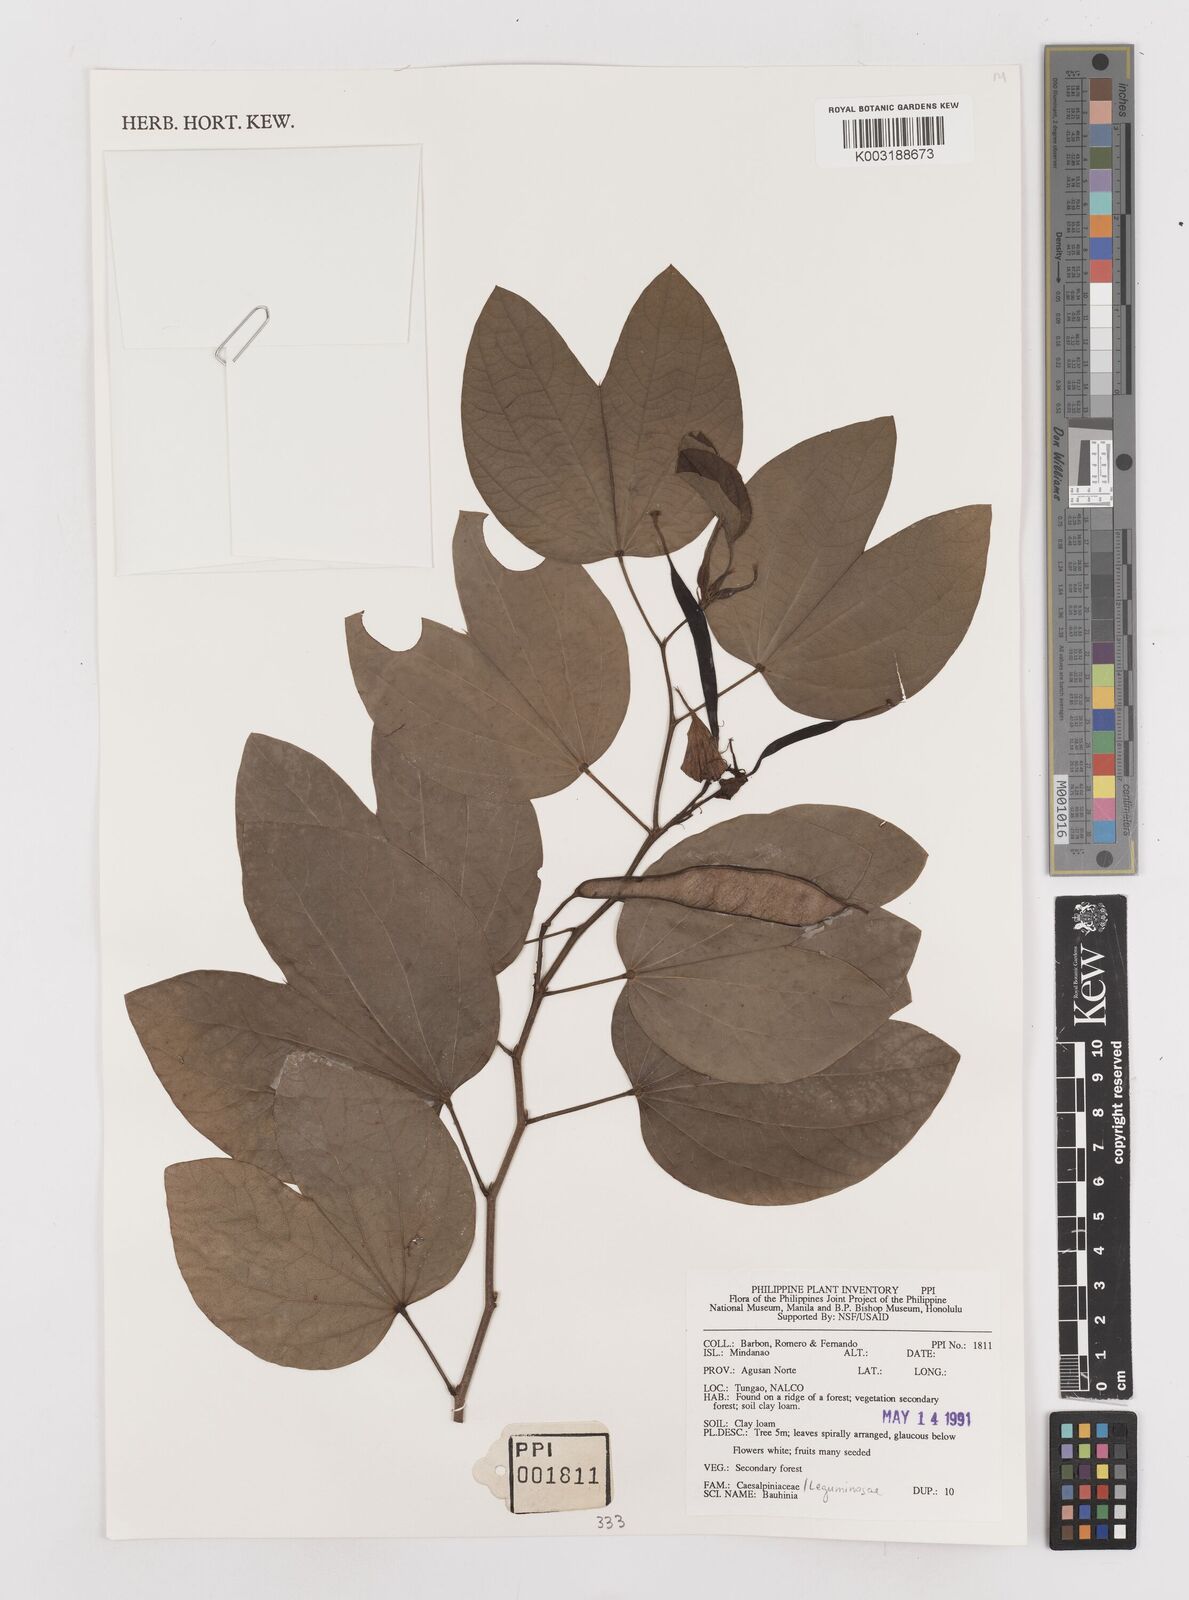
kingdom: Plantae
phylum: Tracheophyta
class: Magnoliopsida
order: Fabales
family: Fabaceae
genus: Bauhinia
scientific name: Bauhinia
